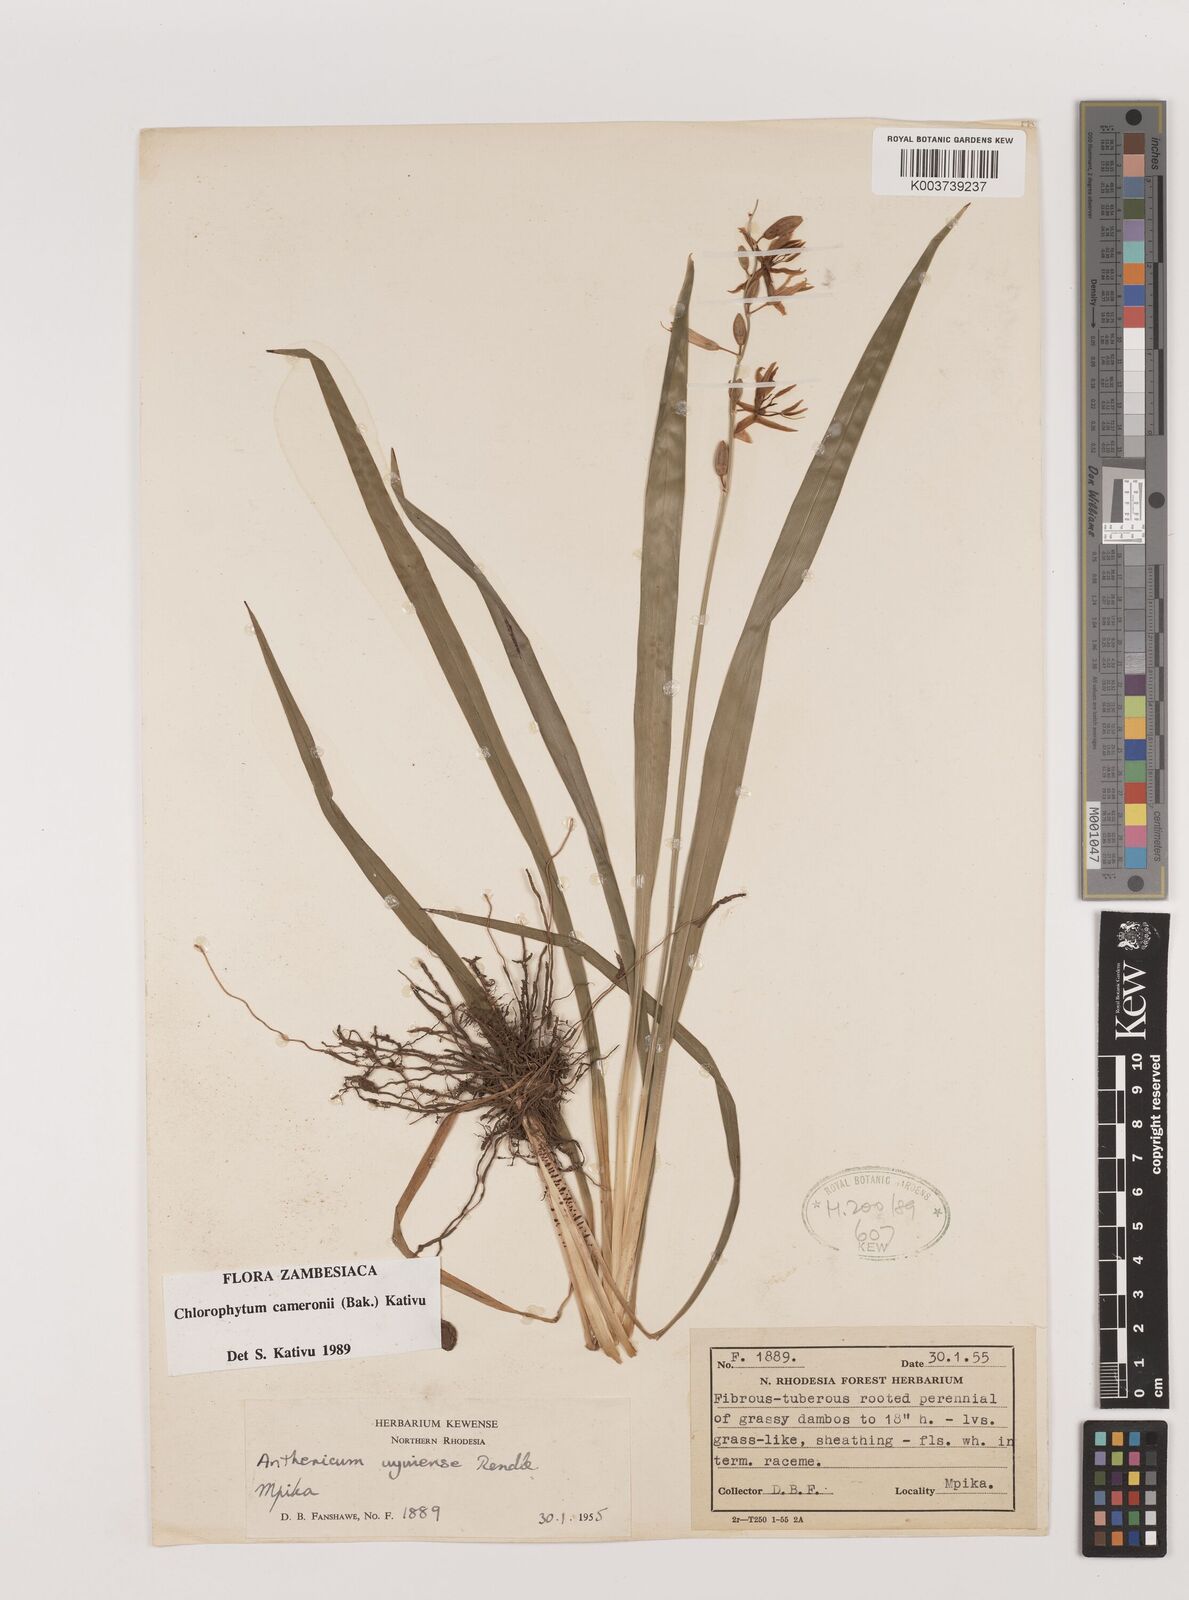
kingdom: Plantae
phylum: Tracheophyta
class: Liliopsida
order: Asparagales
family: Asparagaceae
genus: Chlorophytum
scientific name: Chlorophytum cameronii
